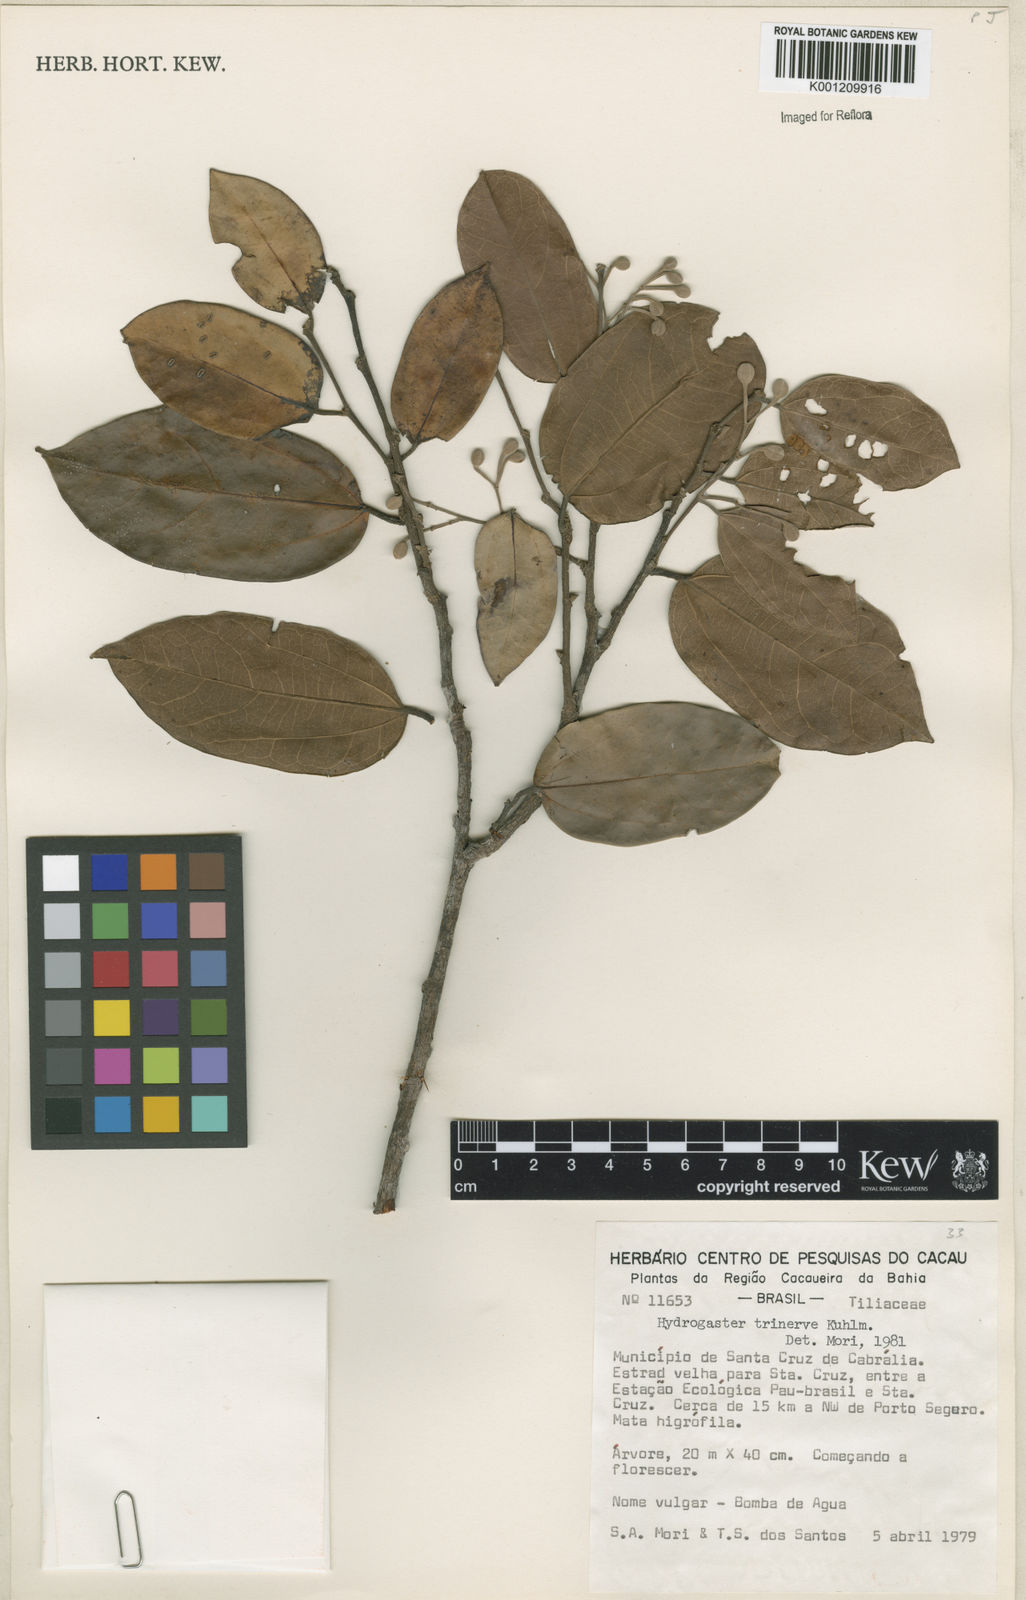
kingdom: Plantae
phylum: Tracheophyta
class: Magnoliopsida
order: Malvales
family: Malvaceae
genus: Hydrogaster
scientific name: Hydrogaster trinervis
